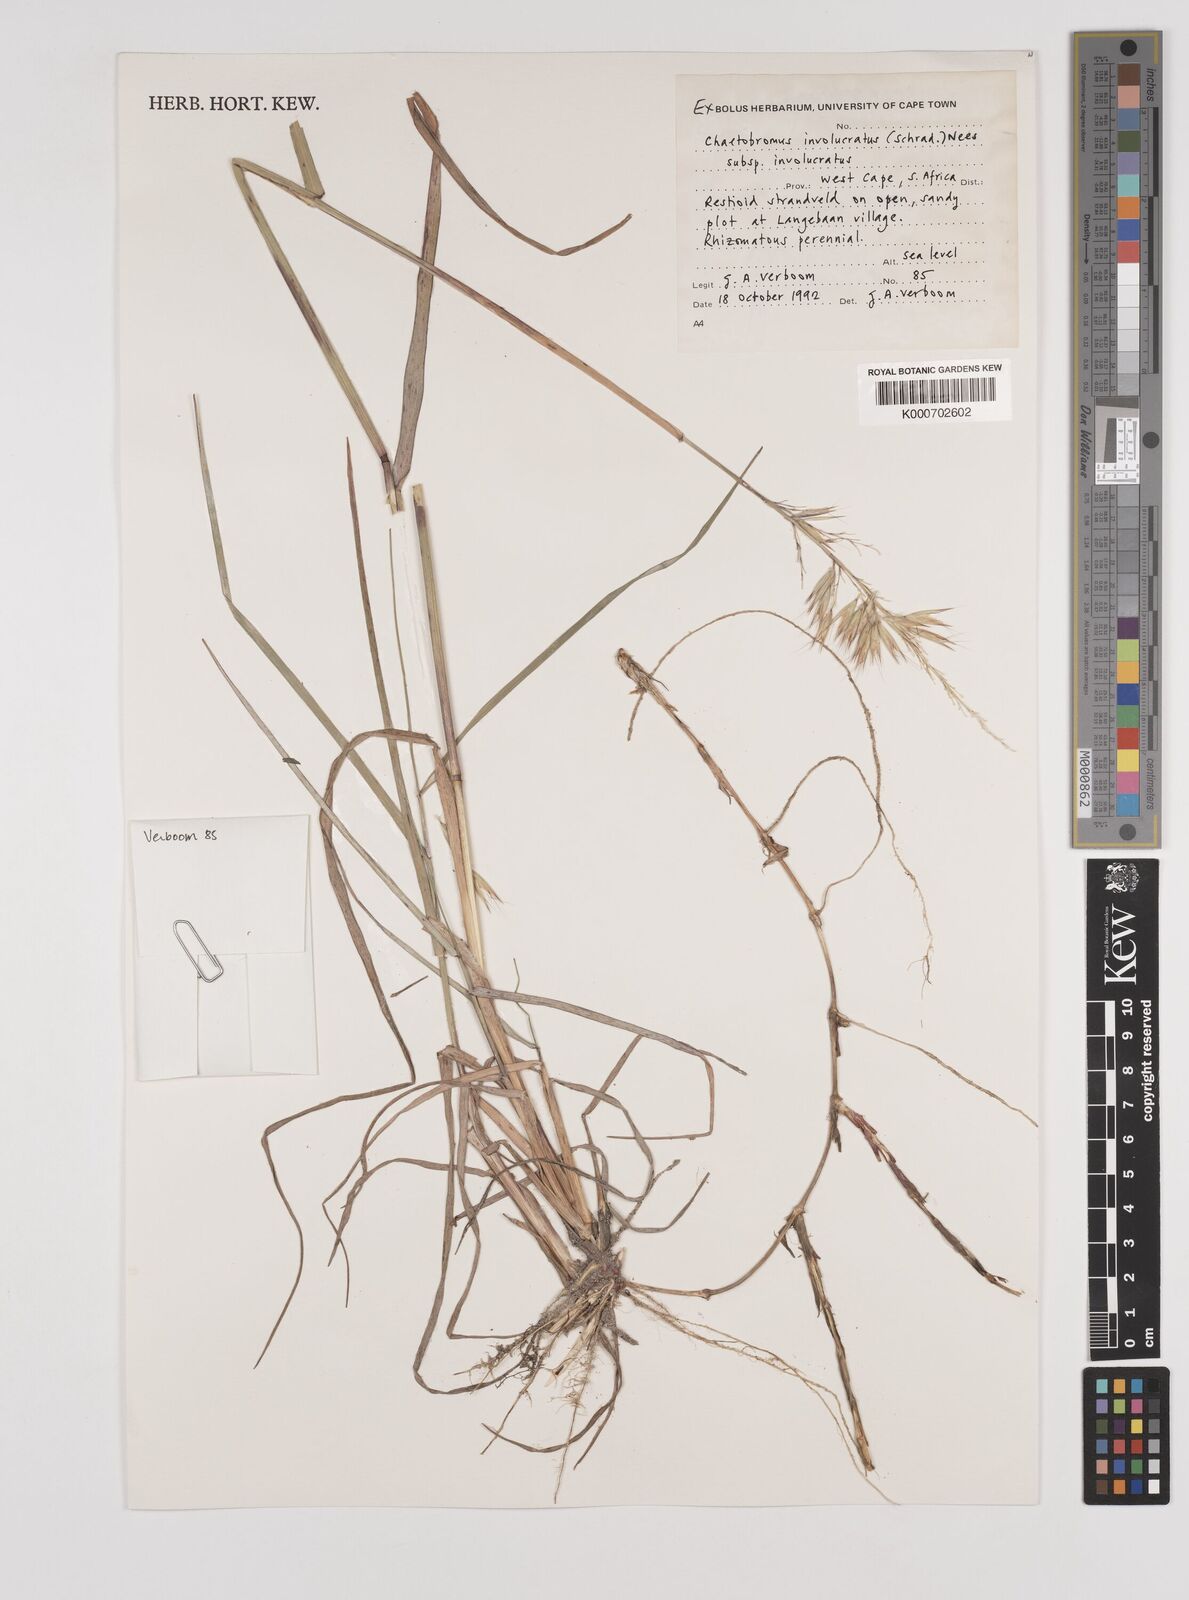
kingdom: Plantae
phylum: Tracheophyta
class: Liliopsida
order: Poales
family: Poaceae
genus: Chaetobromus
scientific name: Chaetobromus involucratus
